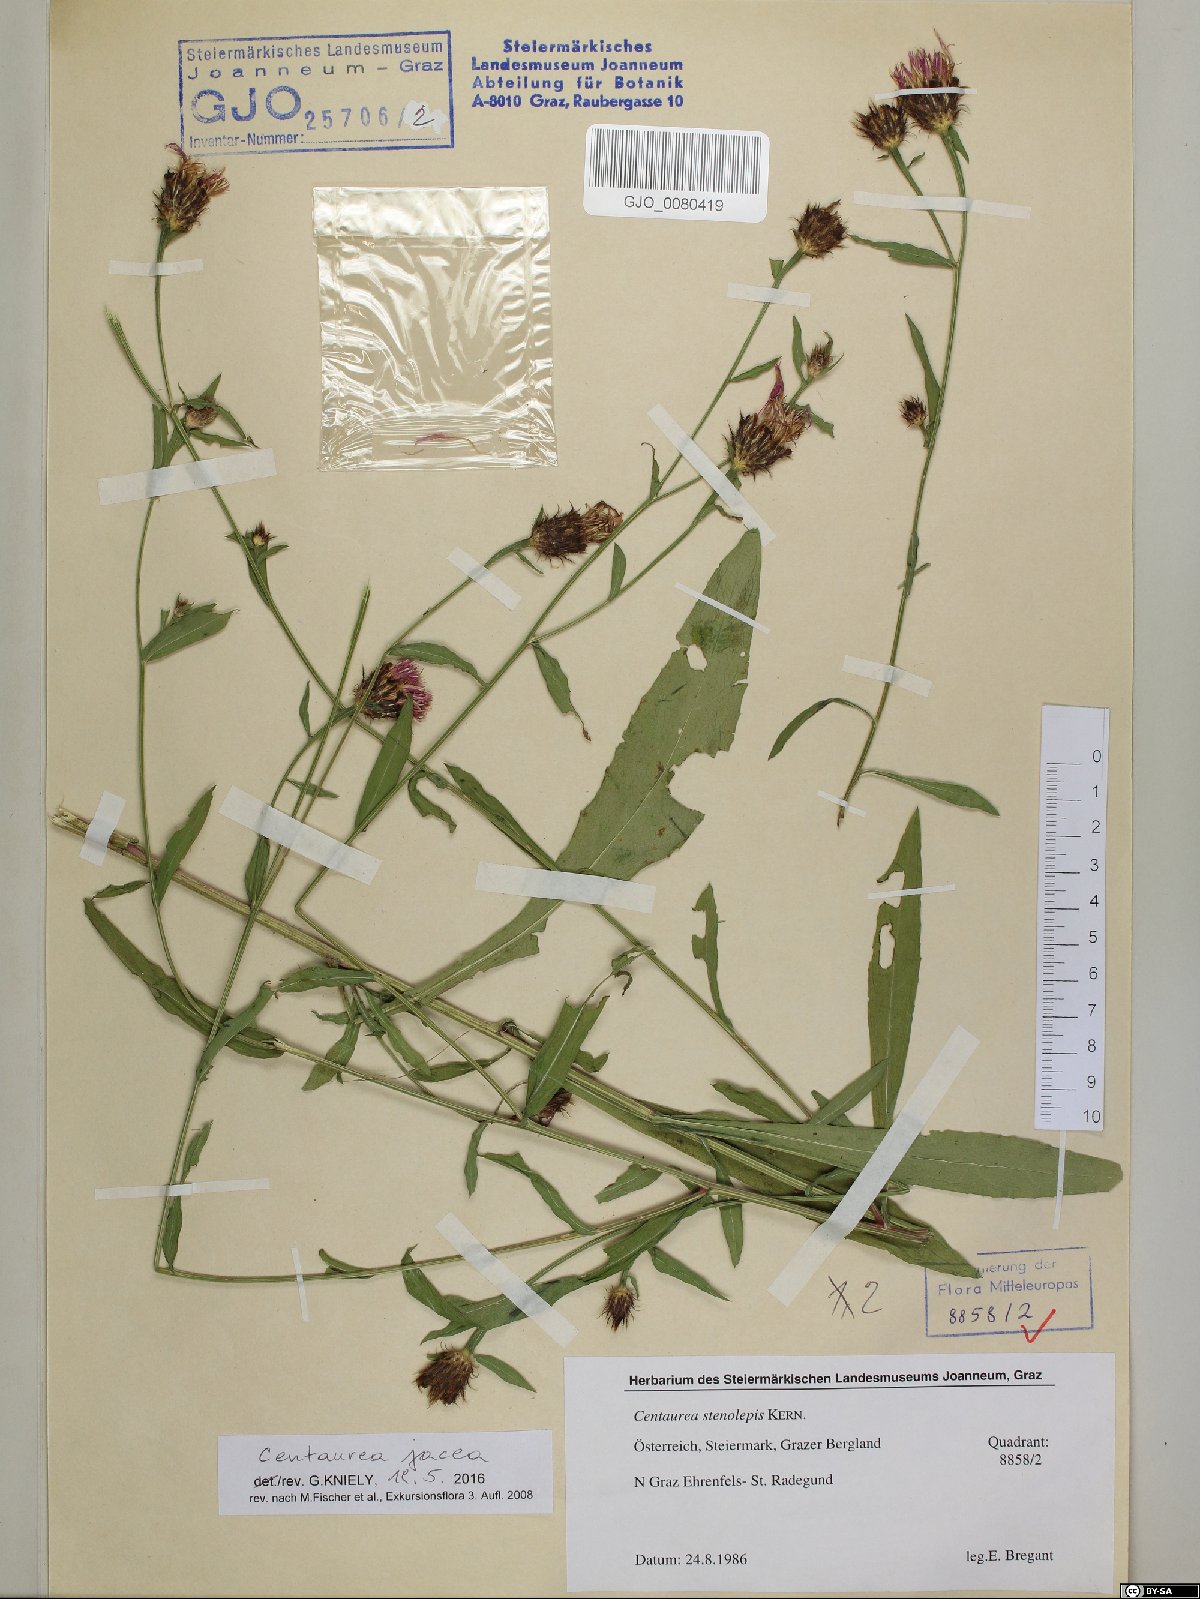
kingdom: Plantae
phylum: Tracheophyta
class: Magnoliopsida
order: Asterales
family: Asteraceae
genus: Centaurea
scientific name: Centaurea jacea
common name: Brown knapweed
